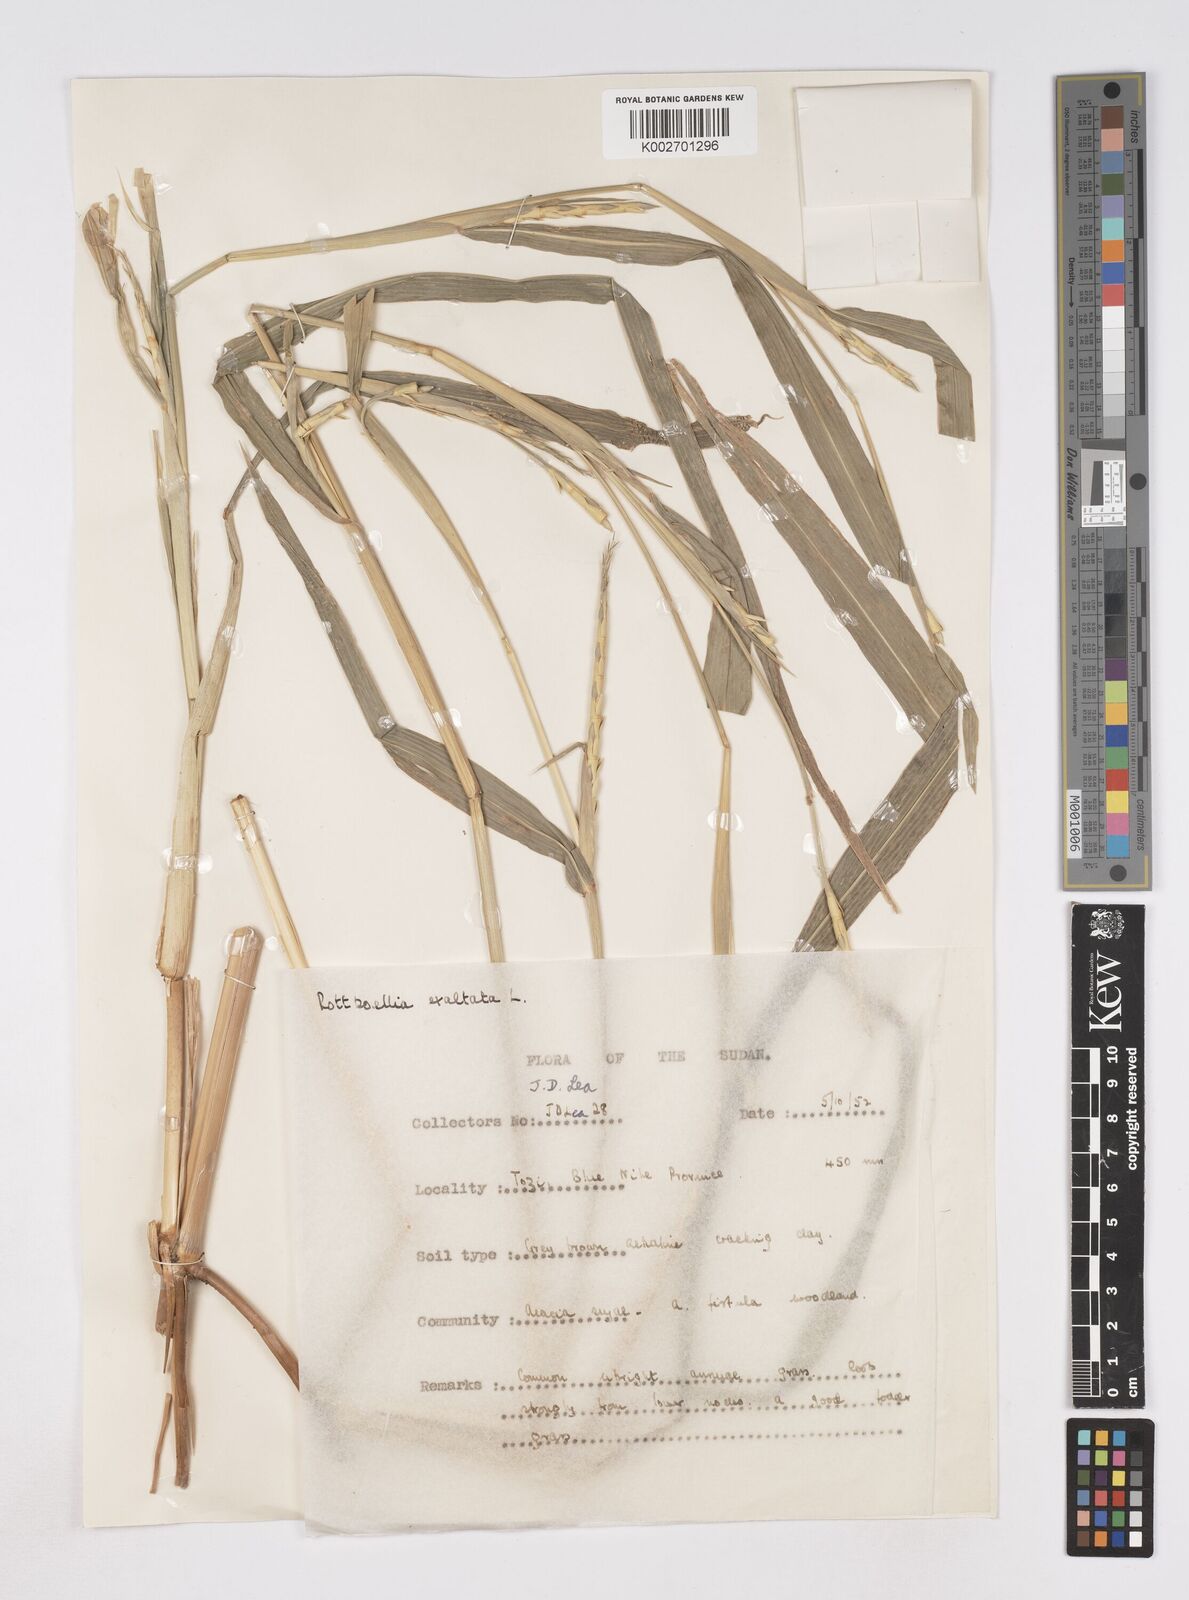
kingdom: Plantae
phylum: Tracheophyta
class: Liliopsida
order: Poales
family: Poaceae
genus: Rottboellia
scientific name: Rottboellia cochinchinensis
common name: Itchgrass
